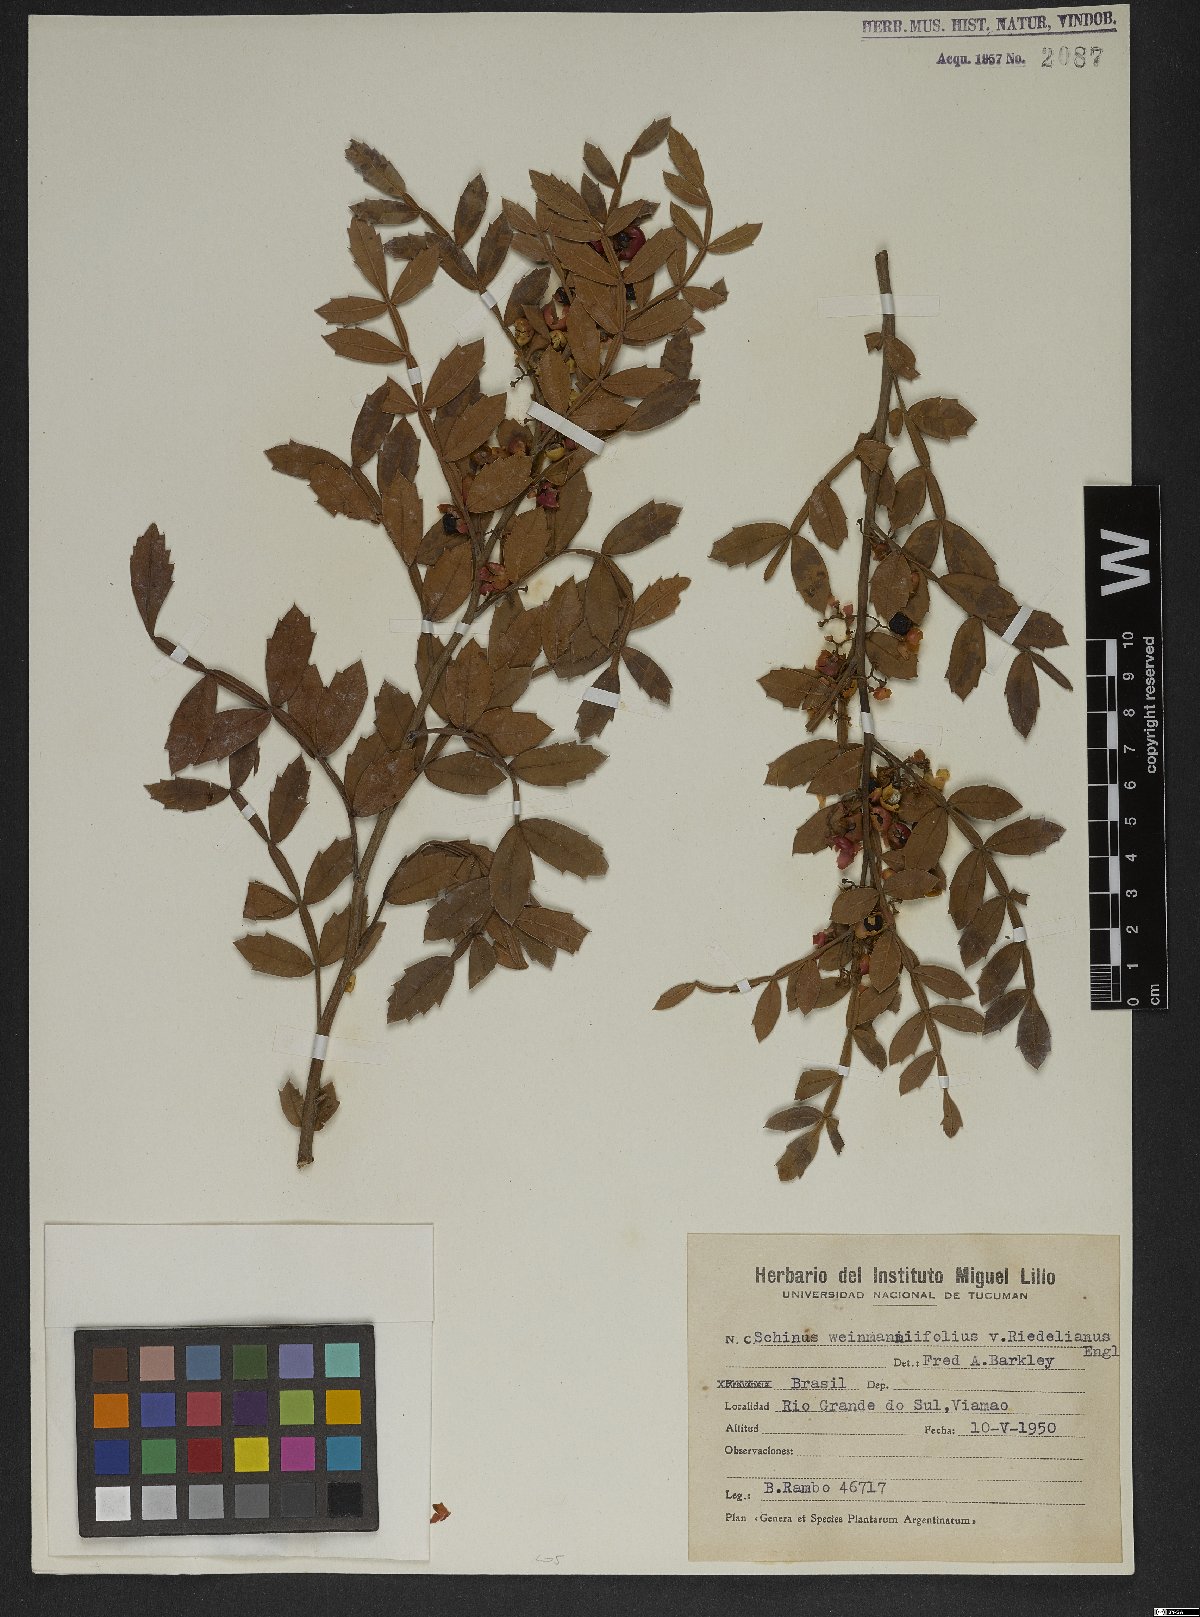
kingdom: Plantae
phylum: Tracheophyta
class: Magnoliopsida
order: Sapindales
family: Anacardiaceae
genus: Schinus
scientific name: Schinus weinmanniifolia
